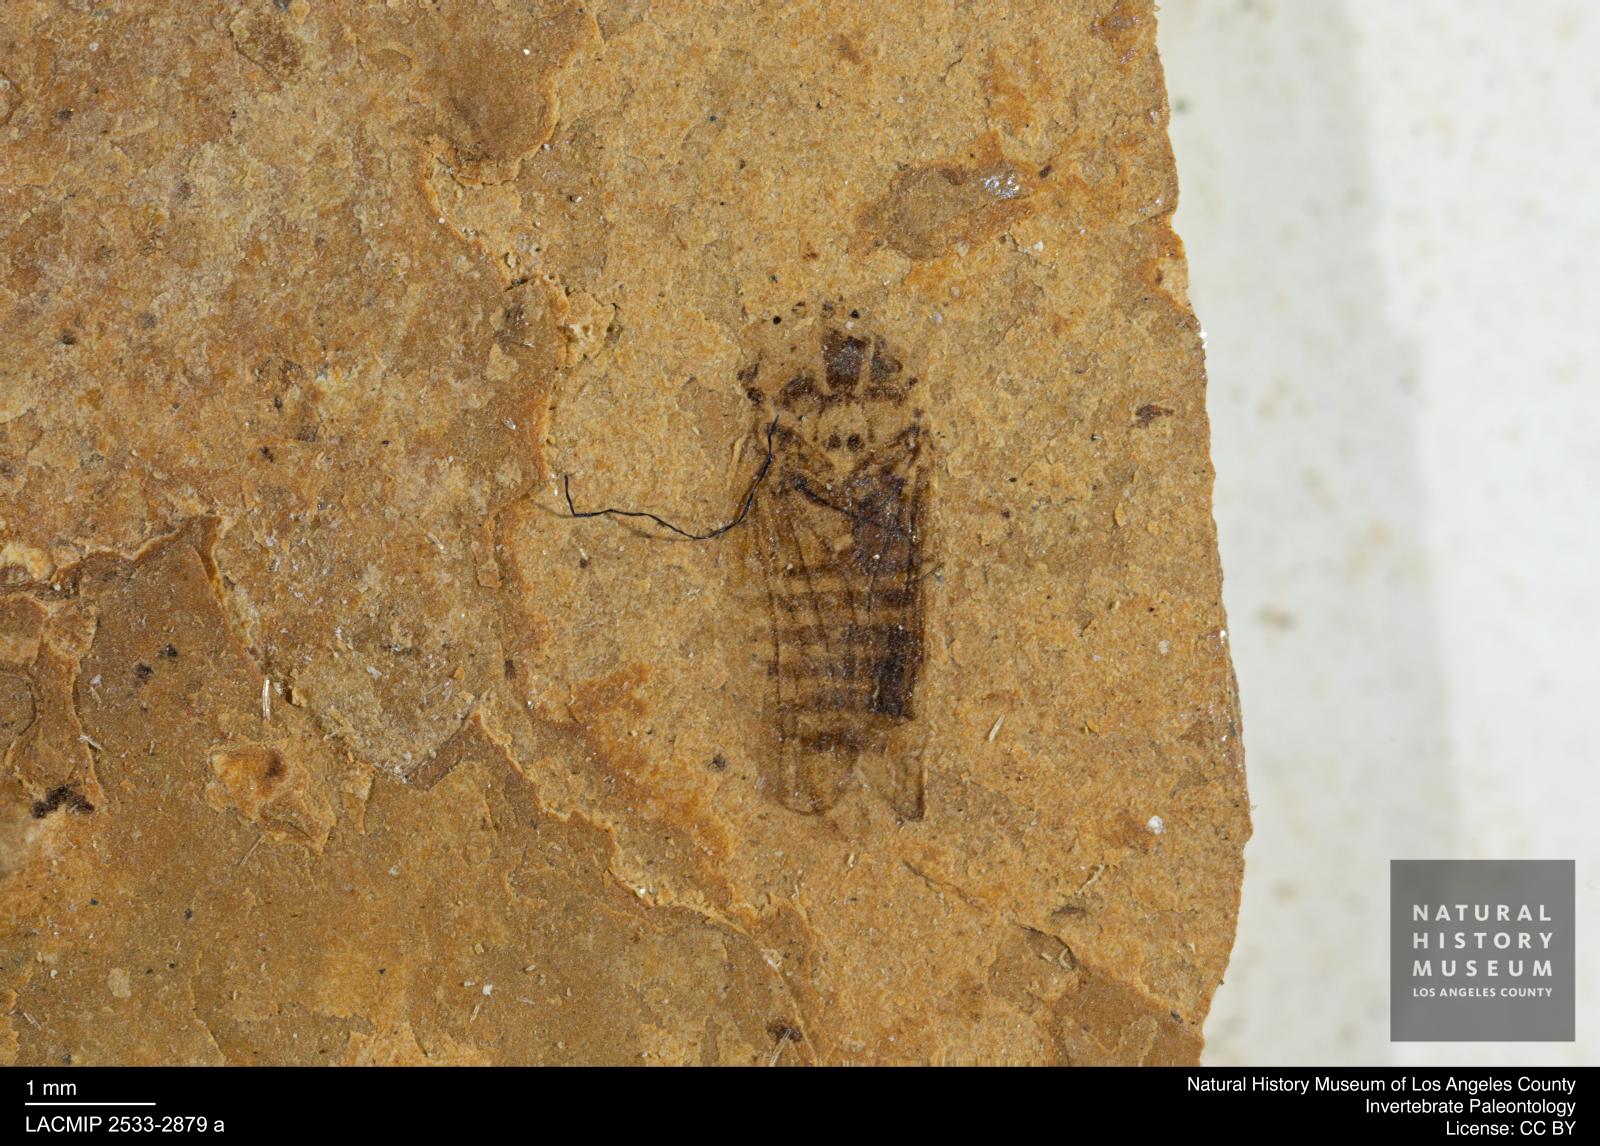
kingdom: Animalia
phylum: Arthropoda
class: Insecta
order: Hemiptera
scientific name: Hemiptera
